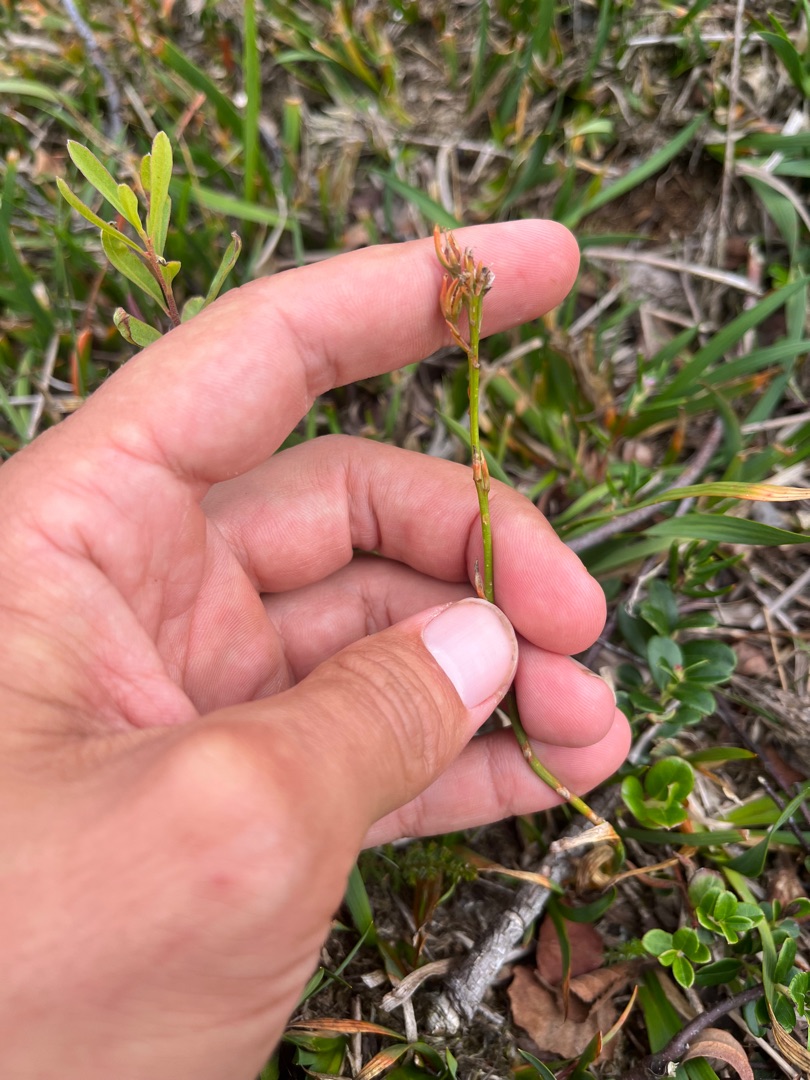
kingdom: Plantae
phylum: Tracheophyta
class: Liliopsida
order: Dioscoreales
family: Nartheciaceae
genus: Narthecium
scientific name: Narthecium ossifragum
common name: Benbræk
